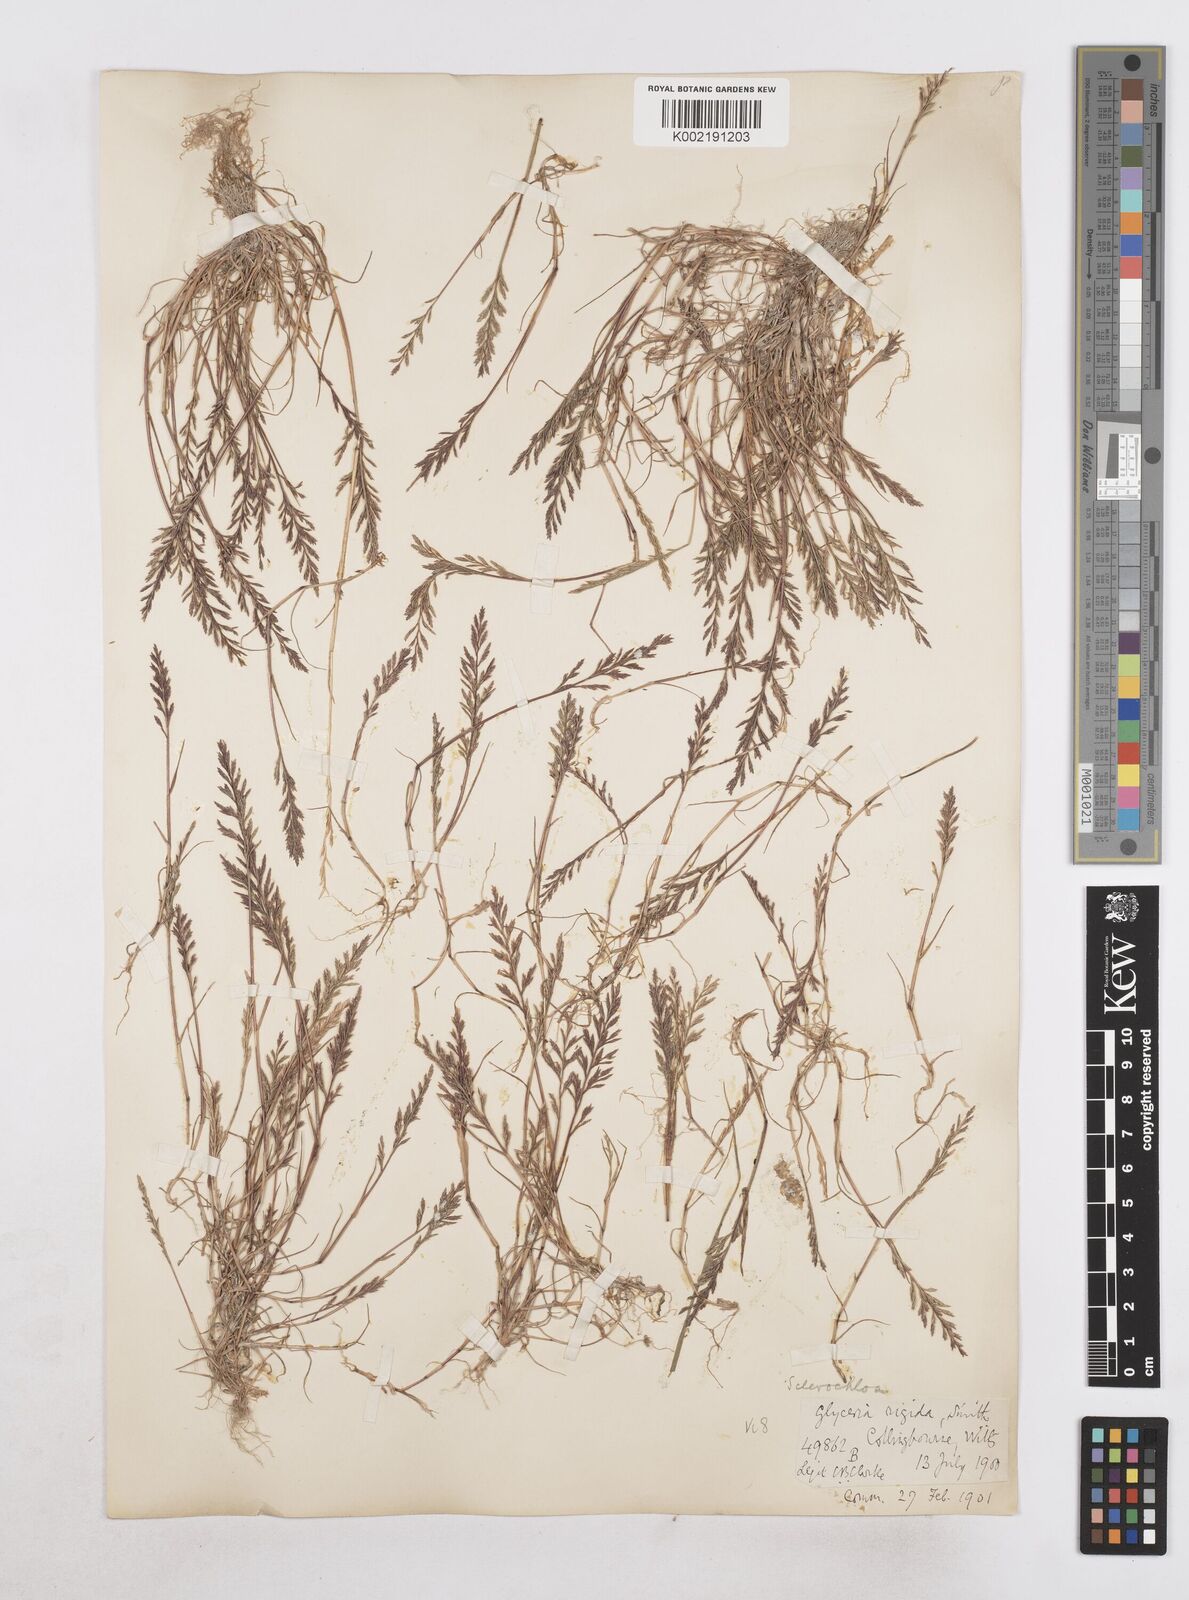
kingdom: Plantae
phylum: Tracheophyta
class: Liliopsida
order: Poales
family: Poaceae
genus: Catapodium
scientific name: Catapodium rigidum
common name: Fern-grass
